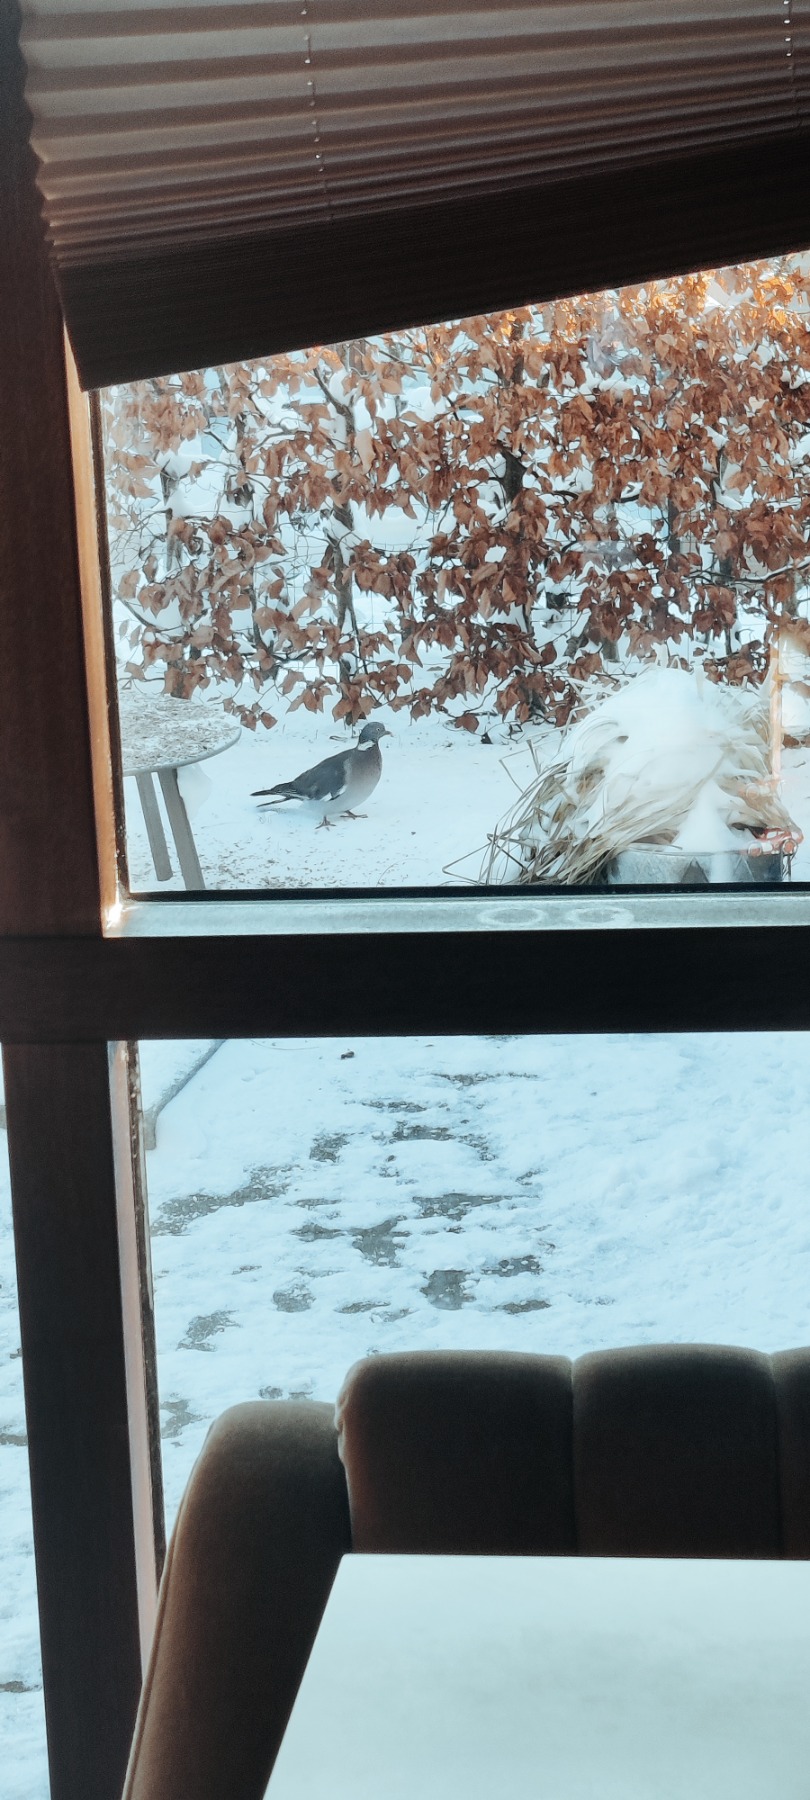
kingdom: Animalia
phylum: Chordata
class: Aves
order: Columbiformes
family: Columbidae
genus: Columba
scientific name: Columba palumbus
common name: Ringdue
